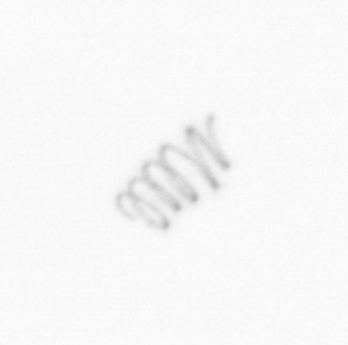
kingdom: Chromista
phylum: Ochrophyta
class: Bacillariophyceae
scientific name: Bacillariophyceae
